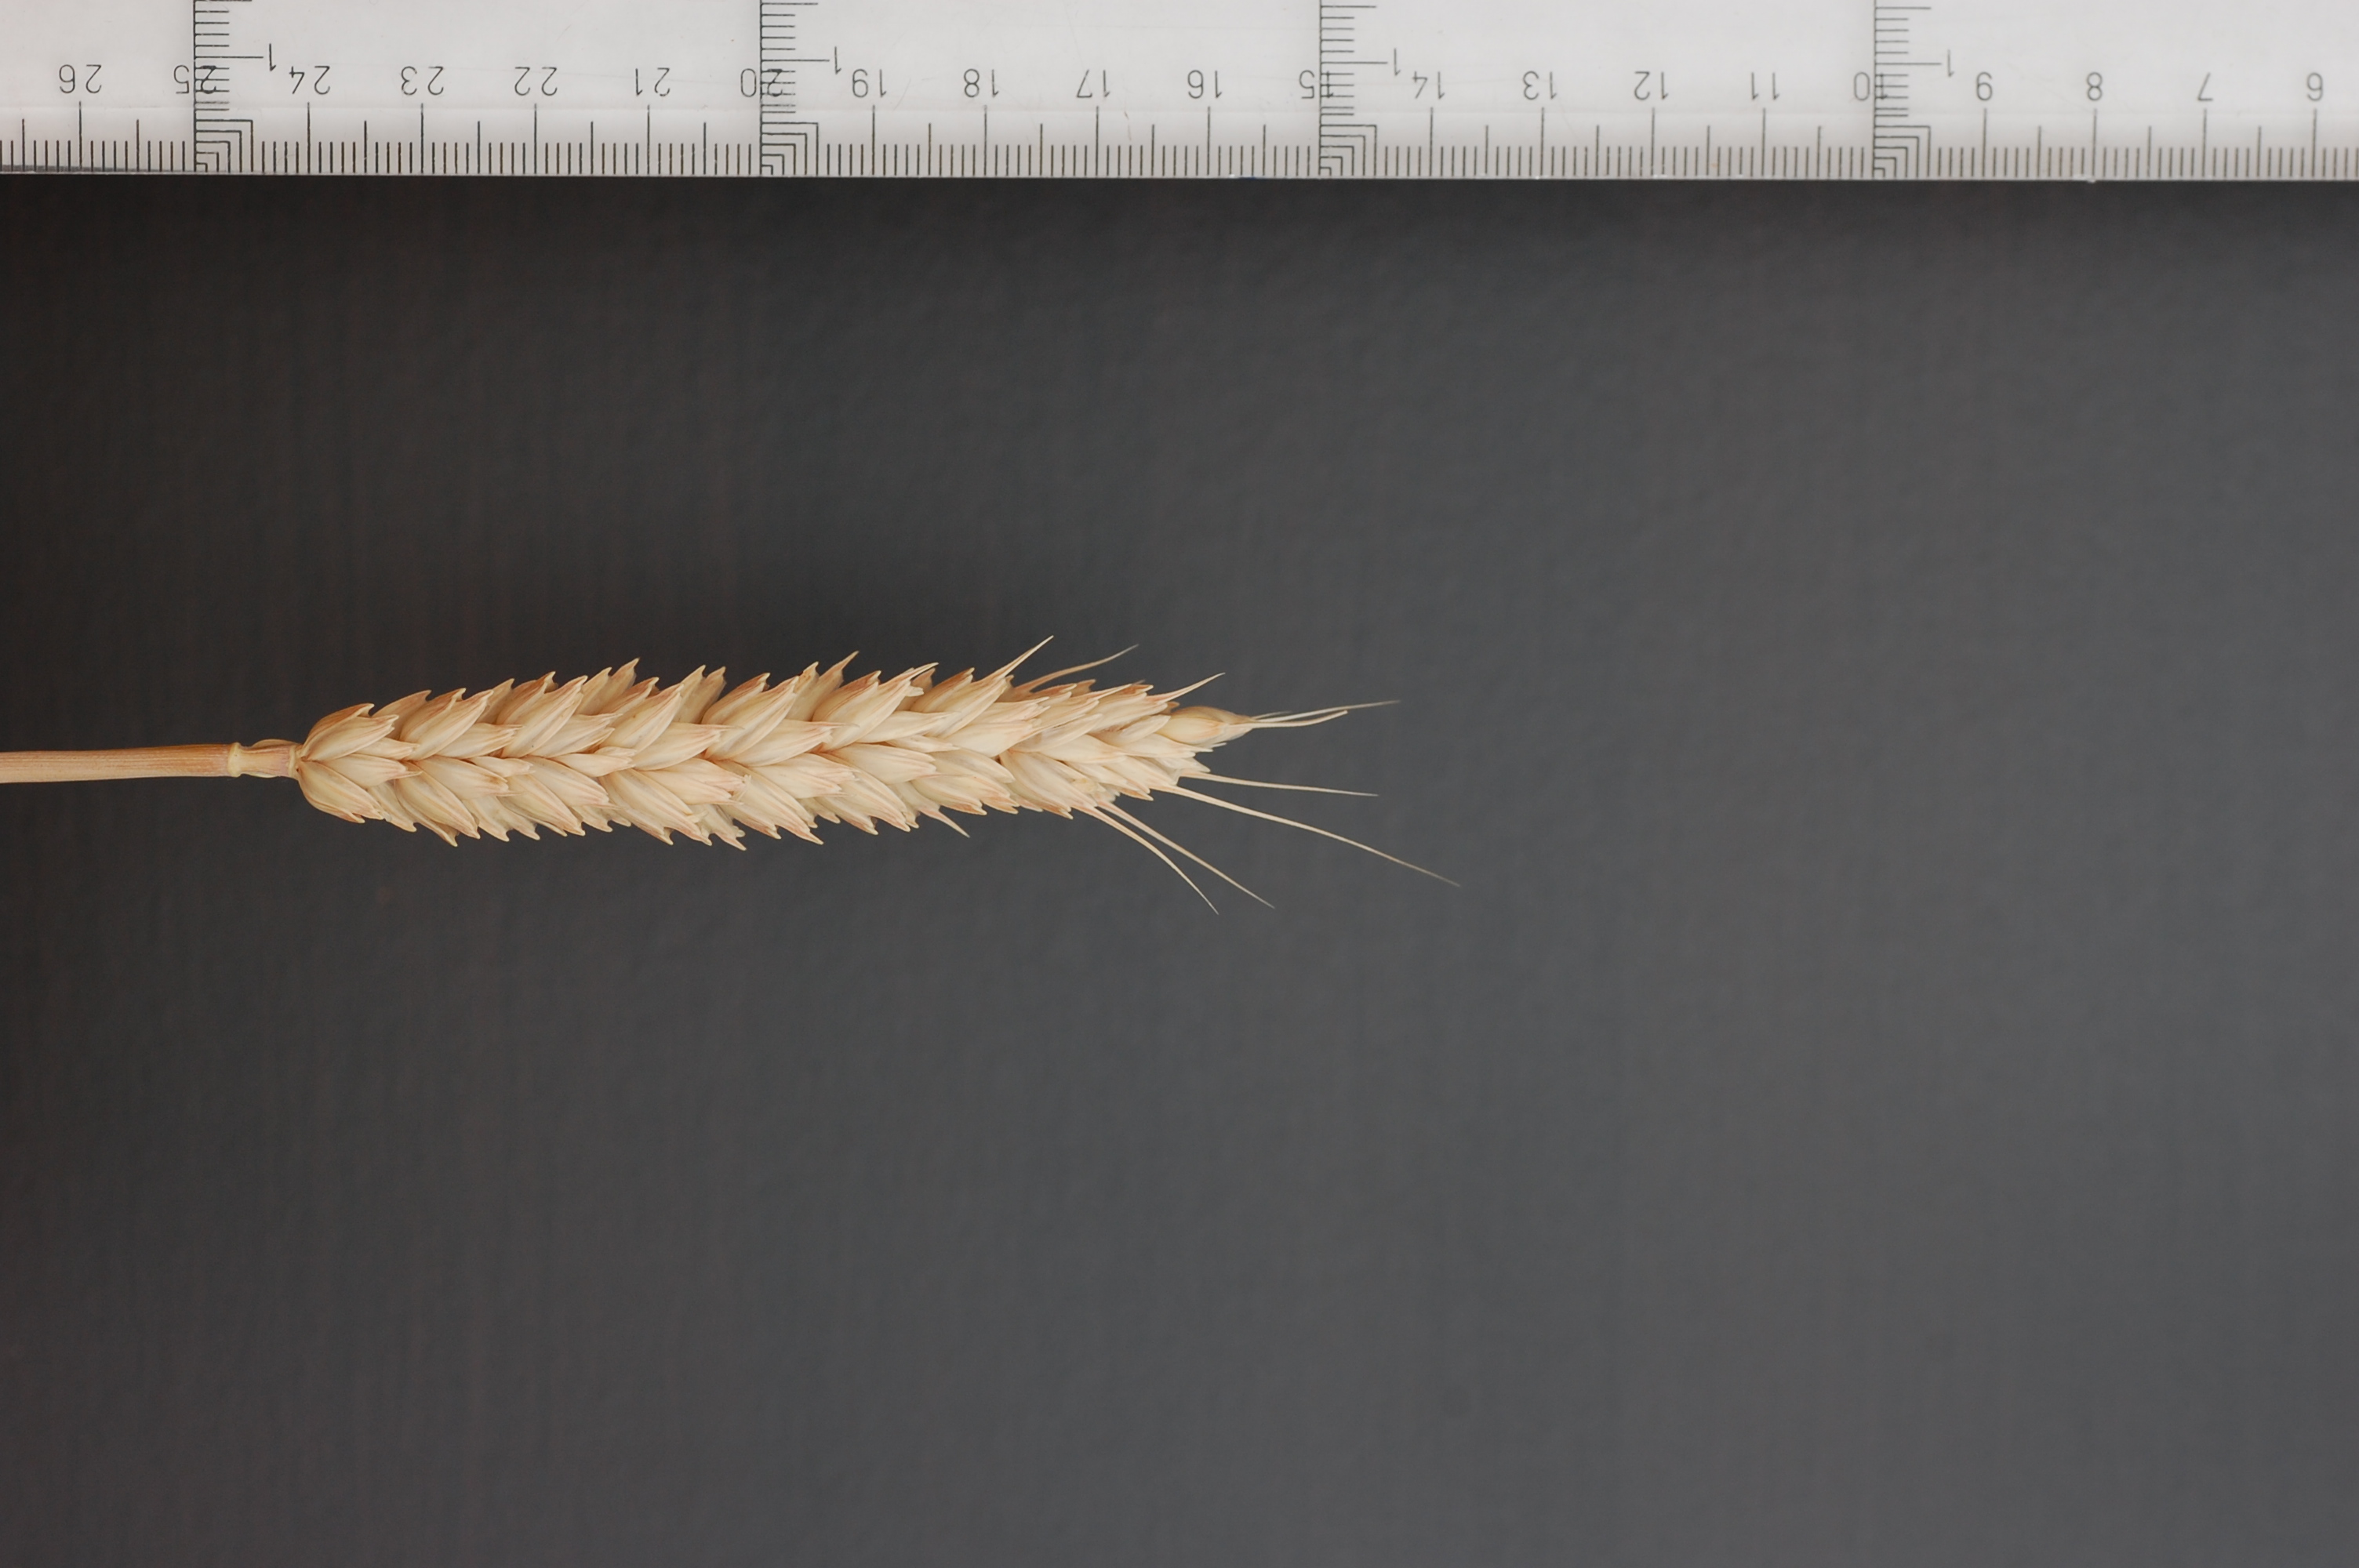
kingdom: Plantae
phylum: Tracheophyta
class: Liliopsida
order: Poales
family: Poaceae
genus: Triticum
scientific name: Triticum aestivum
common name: Common wheat
